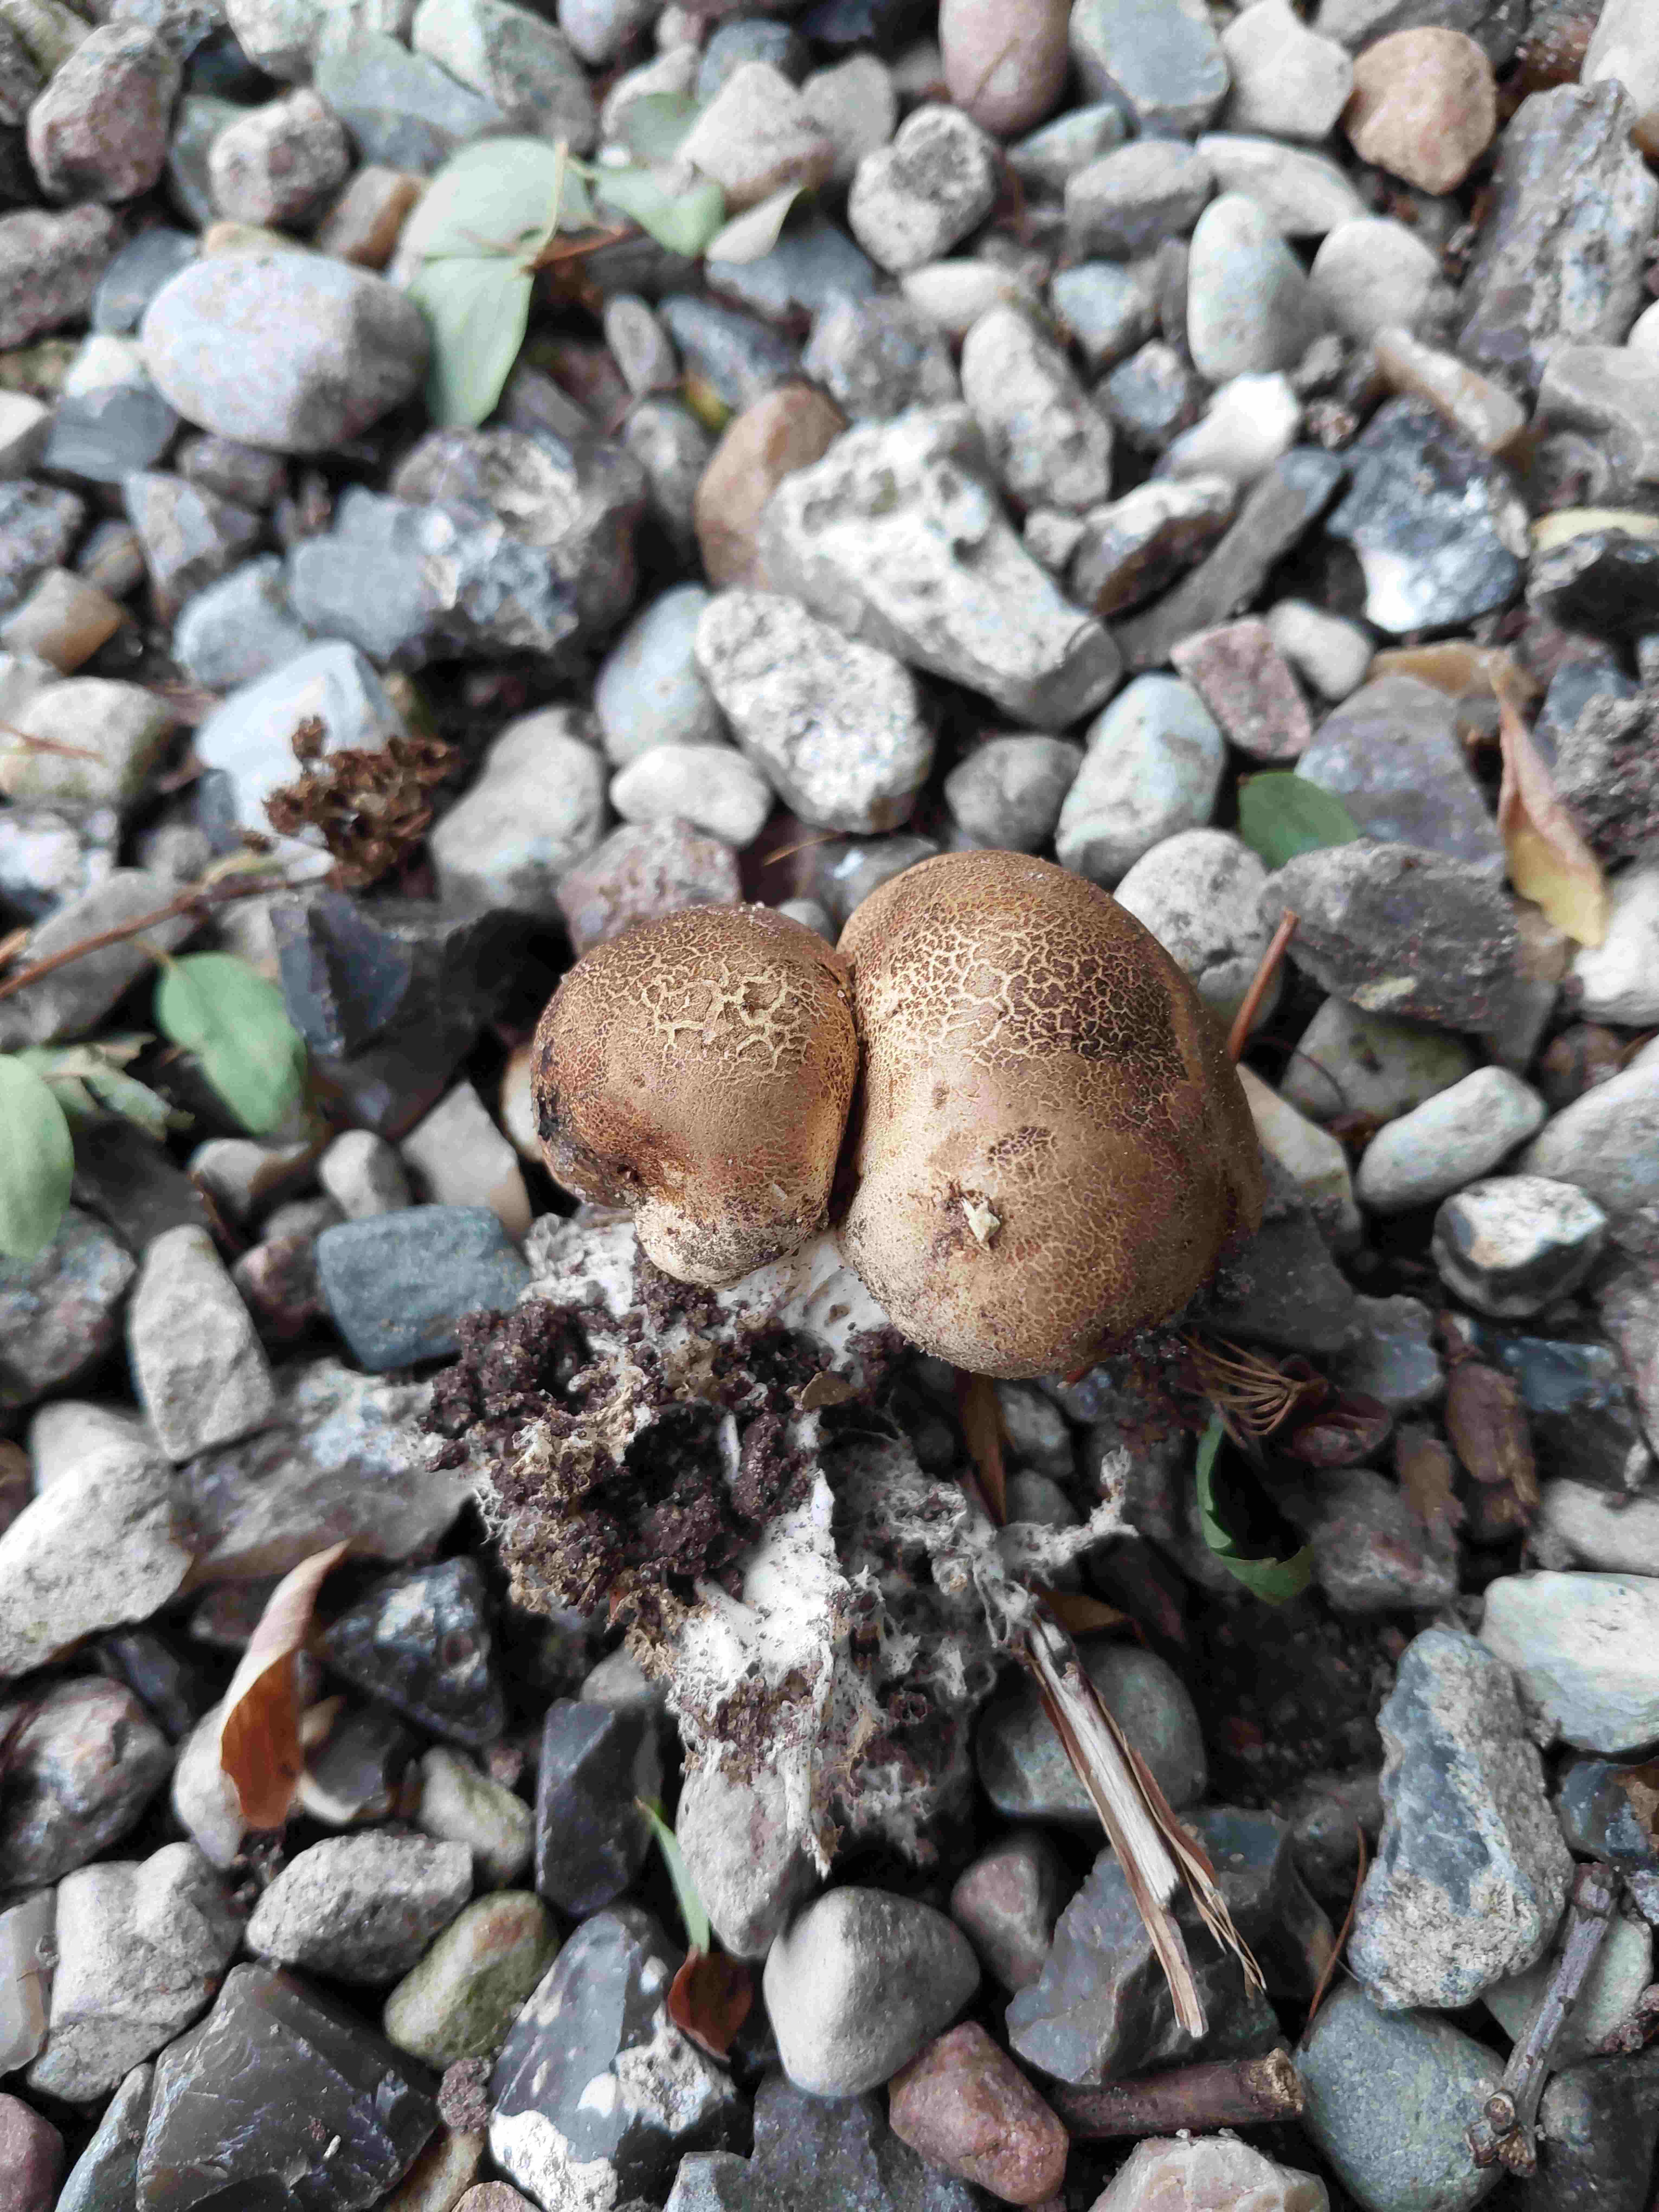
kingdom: Fungi
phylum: Basidiomycota
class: Agaricomycetes
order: Boletales
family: Sclerodermataceae
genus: Scleroderma
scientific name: Scleroderma verrucosum
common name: stilket bruskbold
